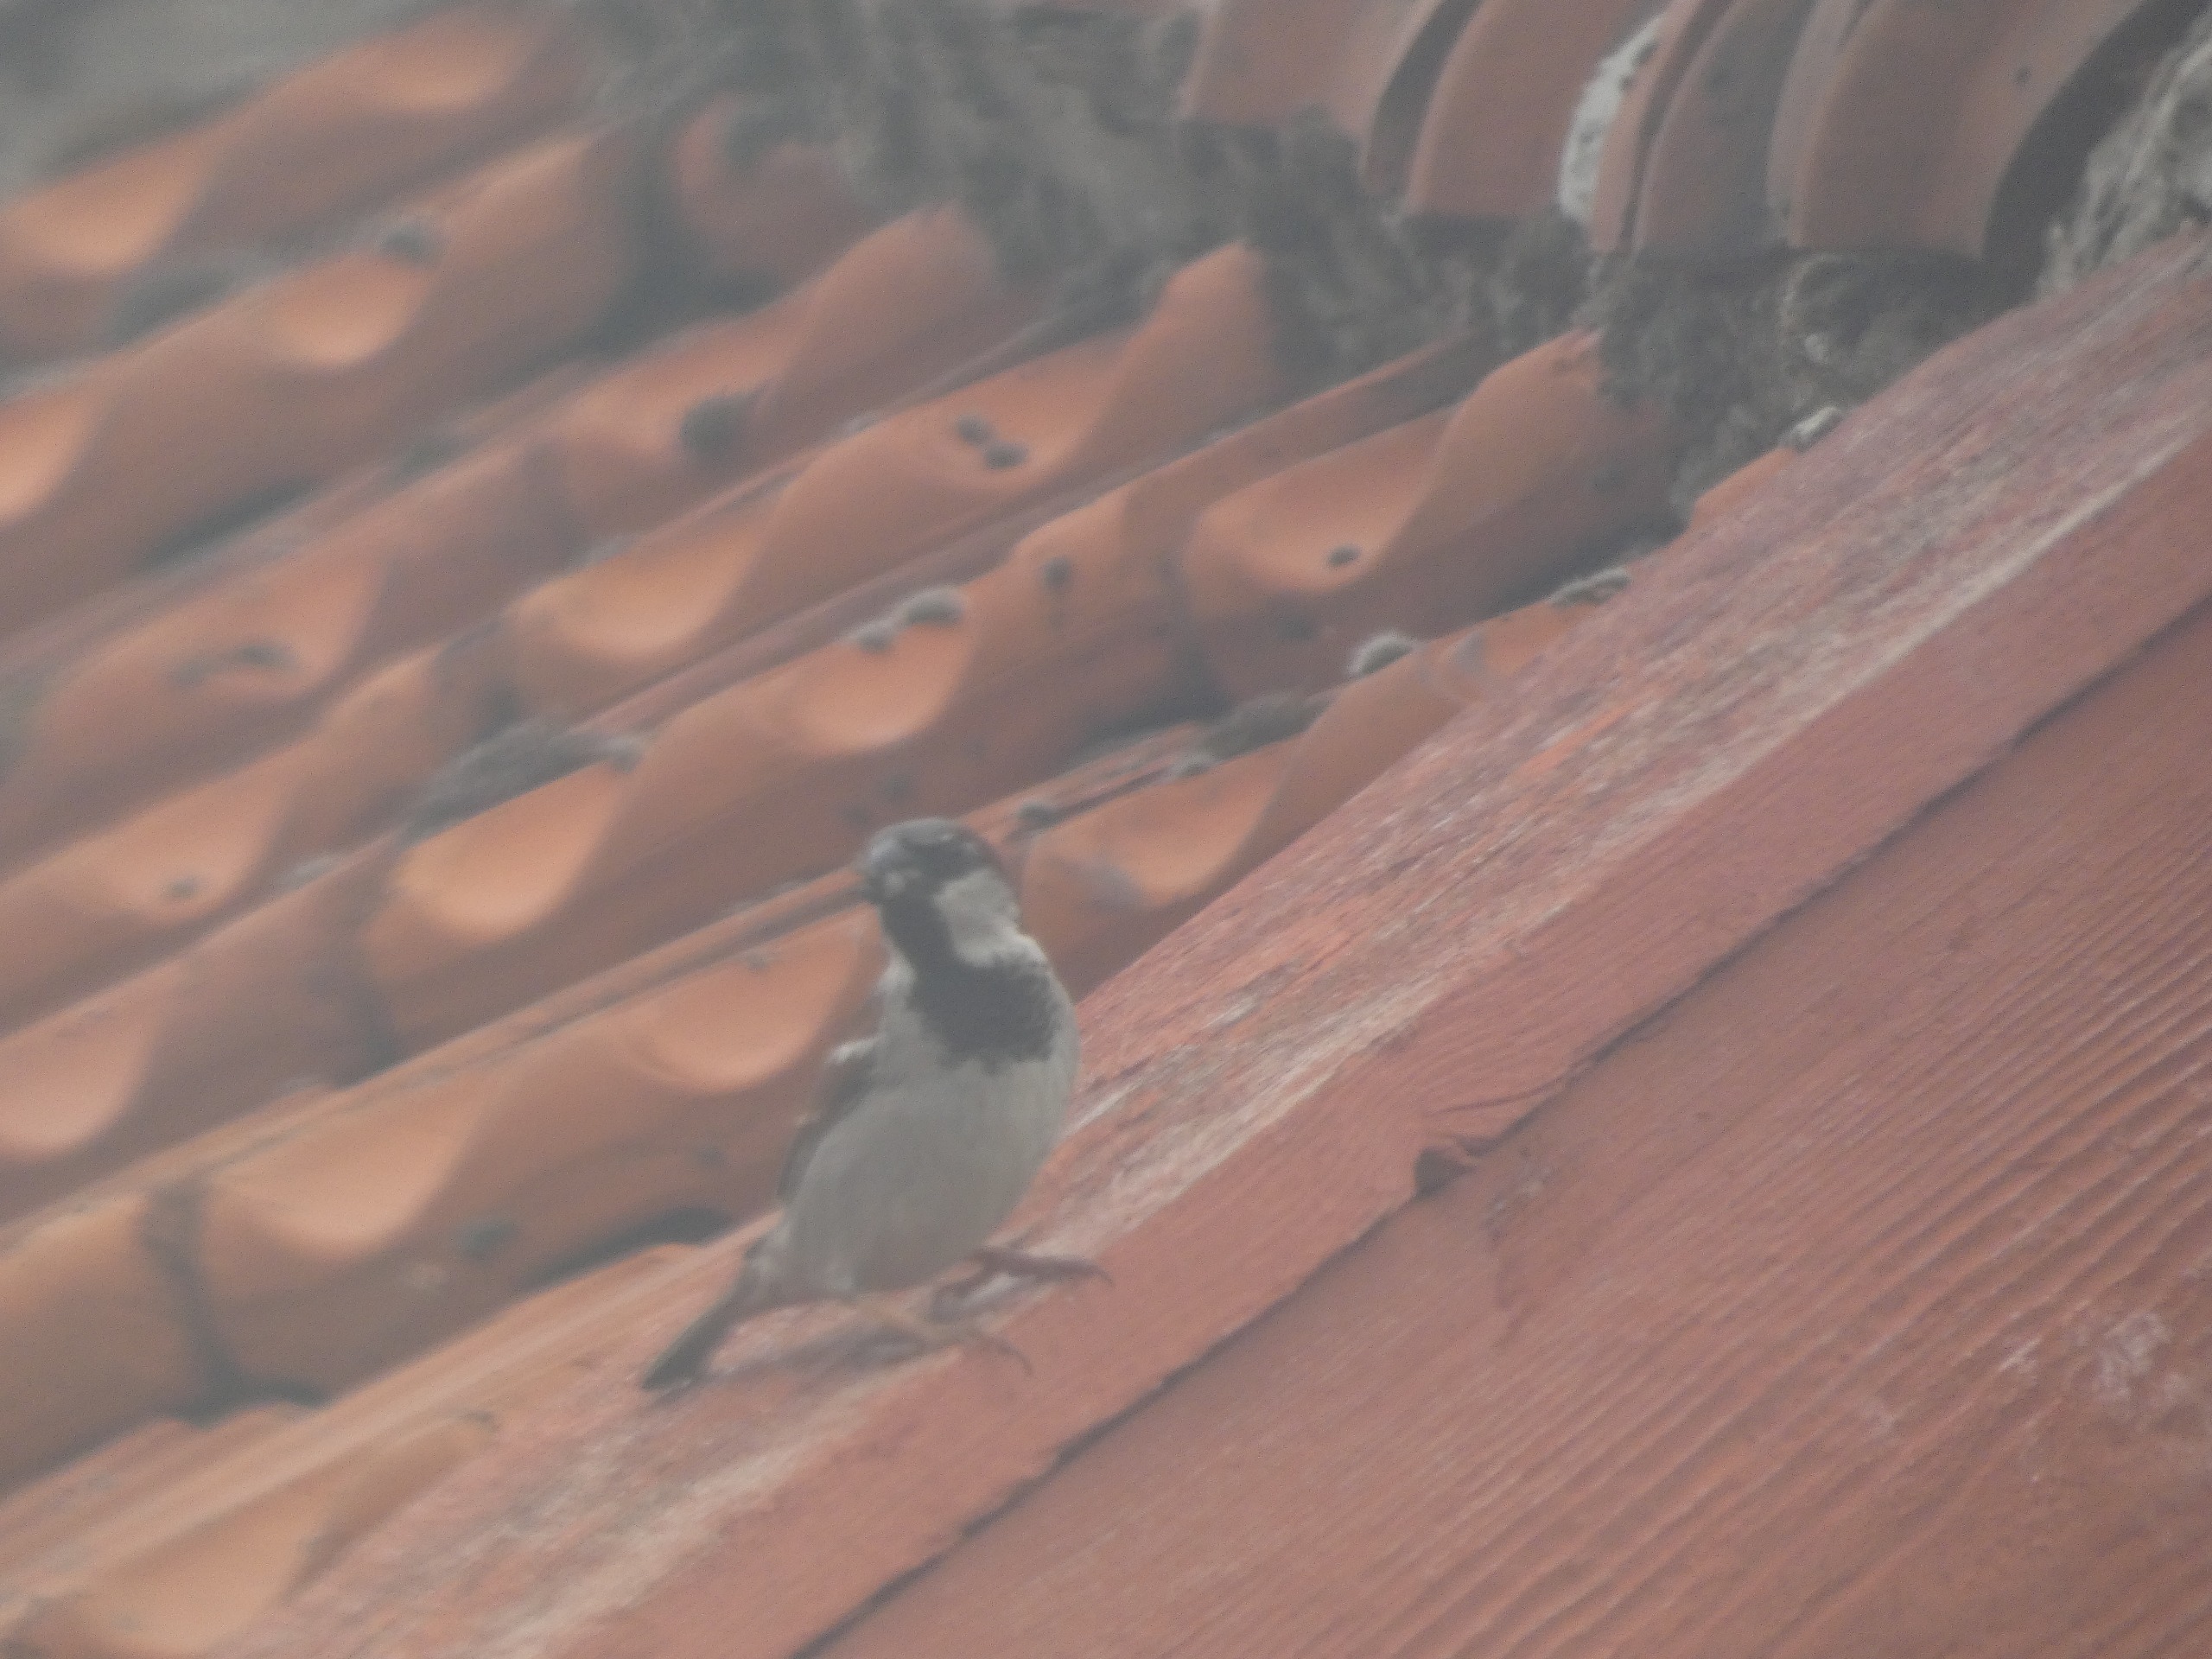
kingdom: Animalia
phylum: Chordata
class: Aves
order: Passeriformes
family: Passeridae
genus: Passer
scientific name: Passer domesticus
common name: Gråspurv
